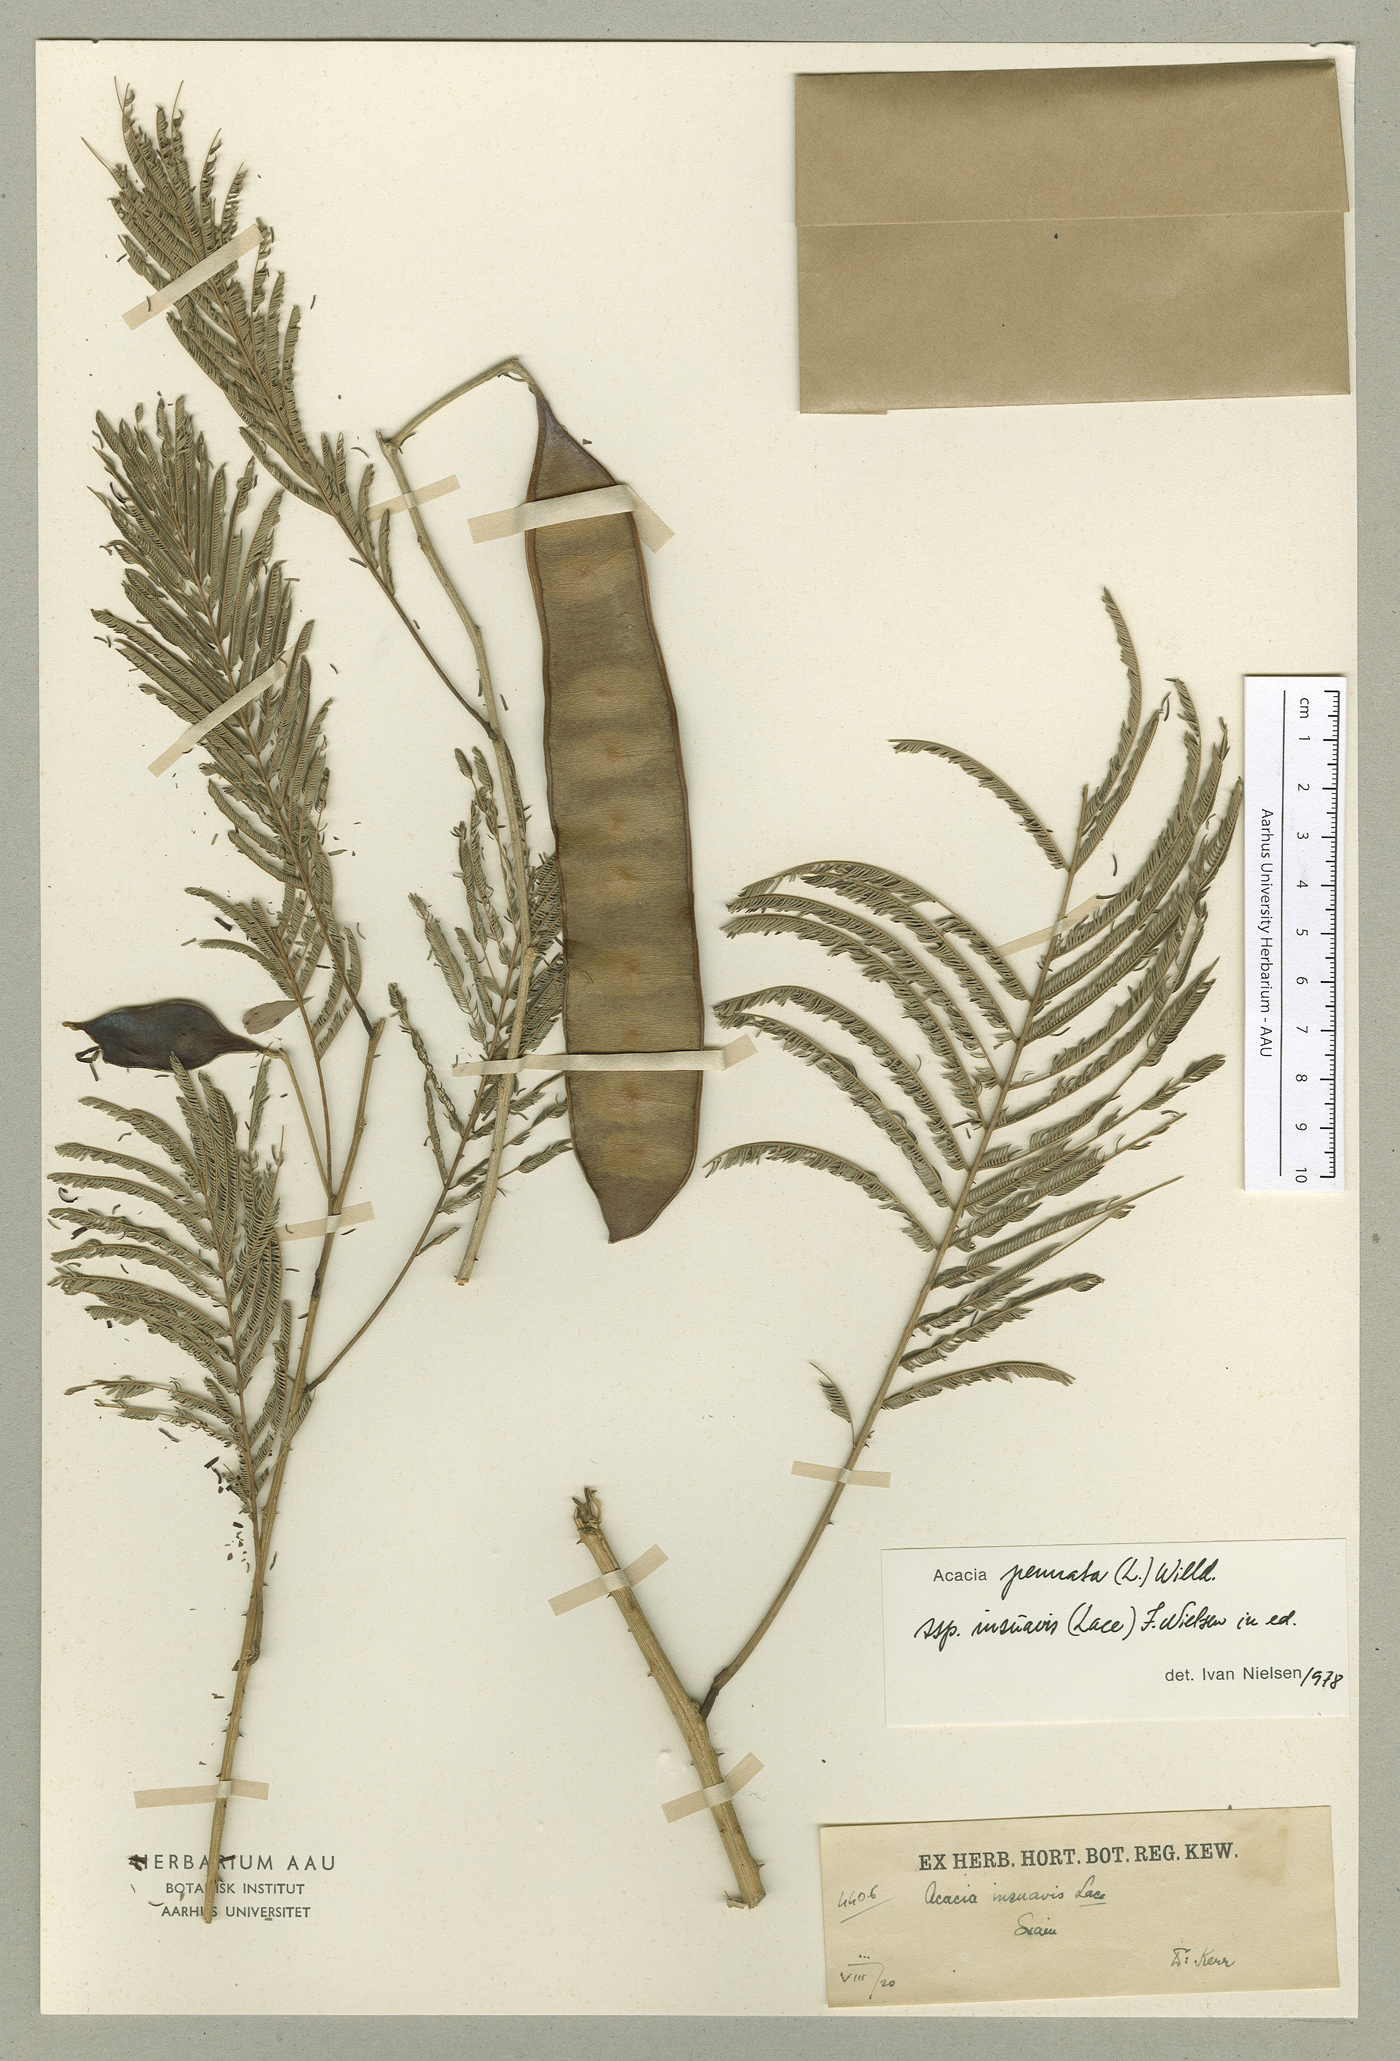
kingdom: Plantae
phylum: Tracheophyta
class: Magnoliopsida
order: Fabales
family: Fabaceae
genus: Senegalia
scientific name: Senegalia pennata
